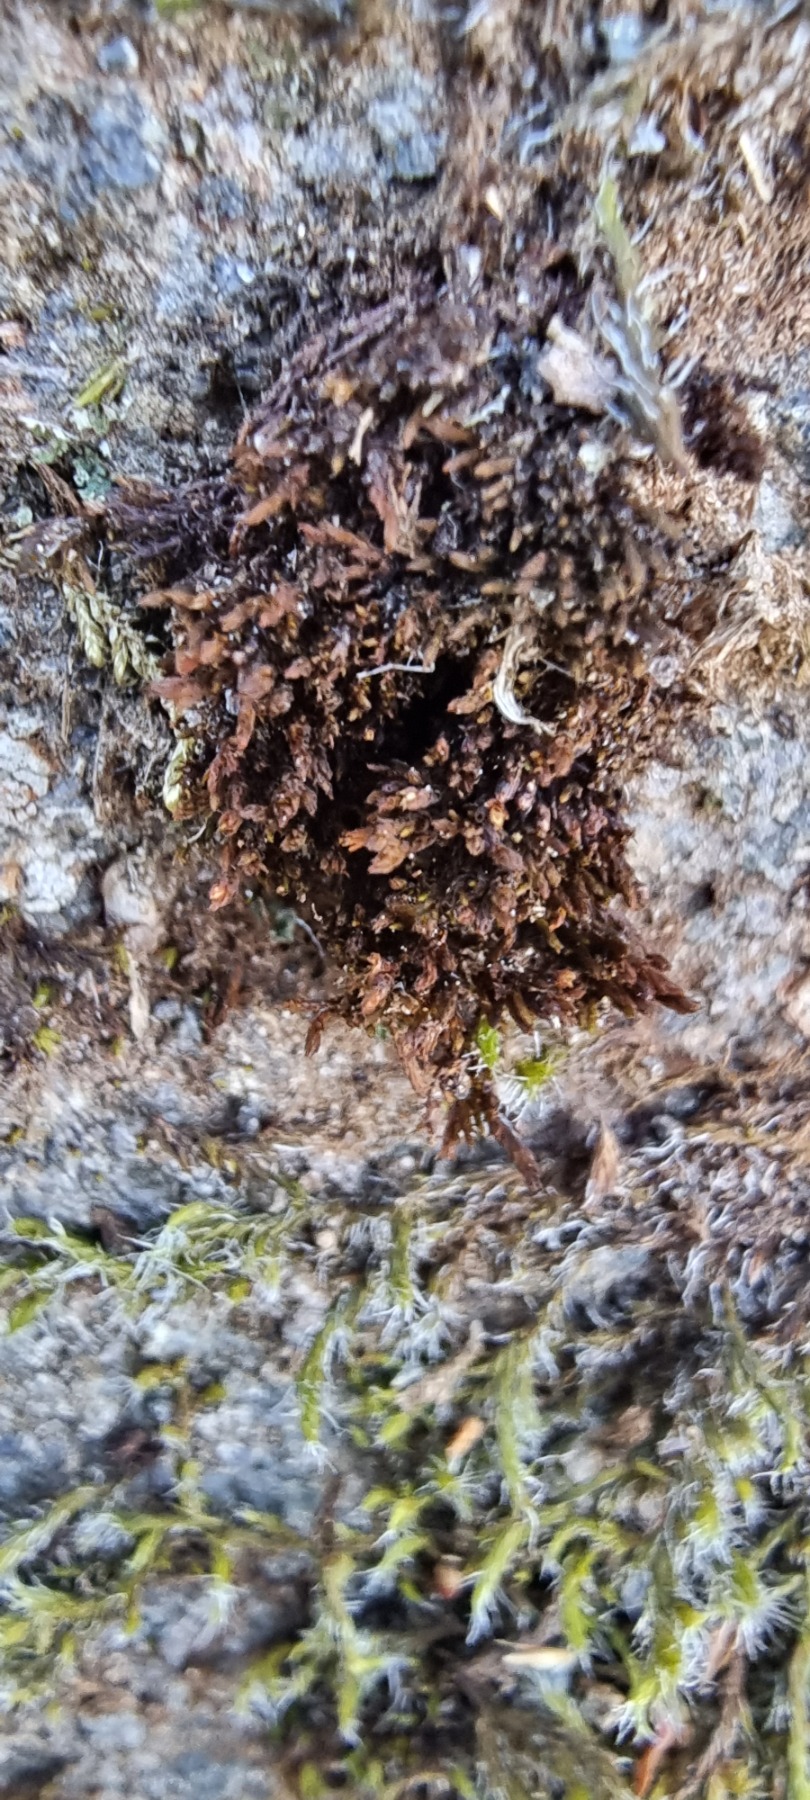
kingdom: Plantae
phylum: Bryophyta
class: Andreaeopsida
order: Andreaeales
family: Andreaeaceae
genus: Andreaea
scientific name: Andreaea rupestris
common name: Lille sortmos
